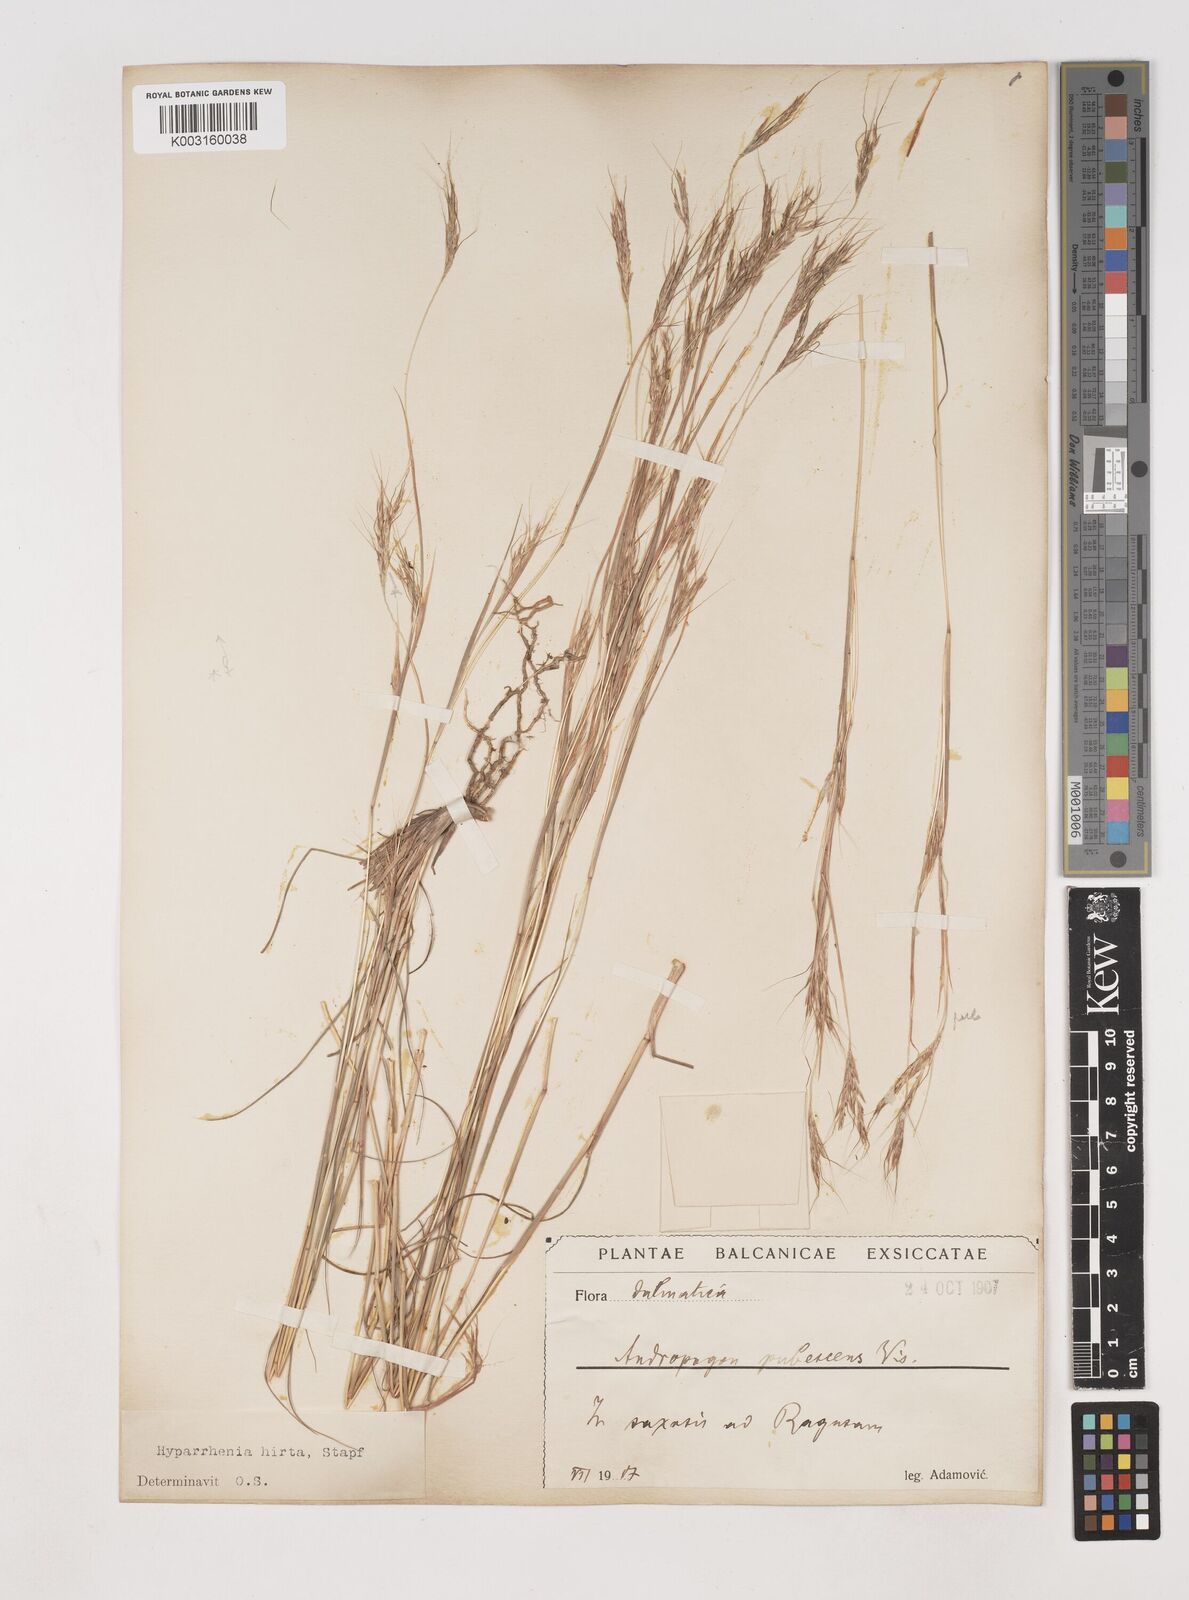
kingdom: Plantae
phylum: Tracheophyta
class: Liliopsida
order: Poales
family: Poaceae
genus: Hyparrhenia
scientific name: Hyparrhenia hirta
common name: Thatching grass
